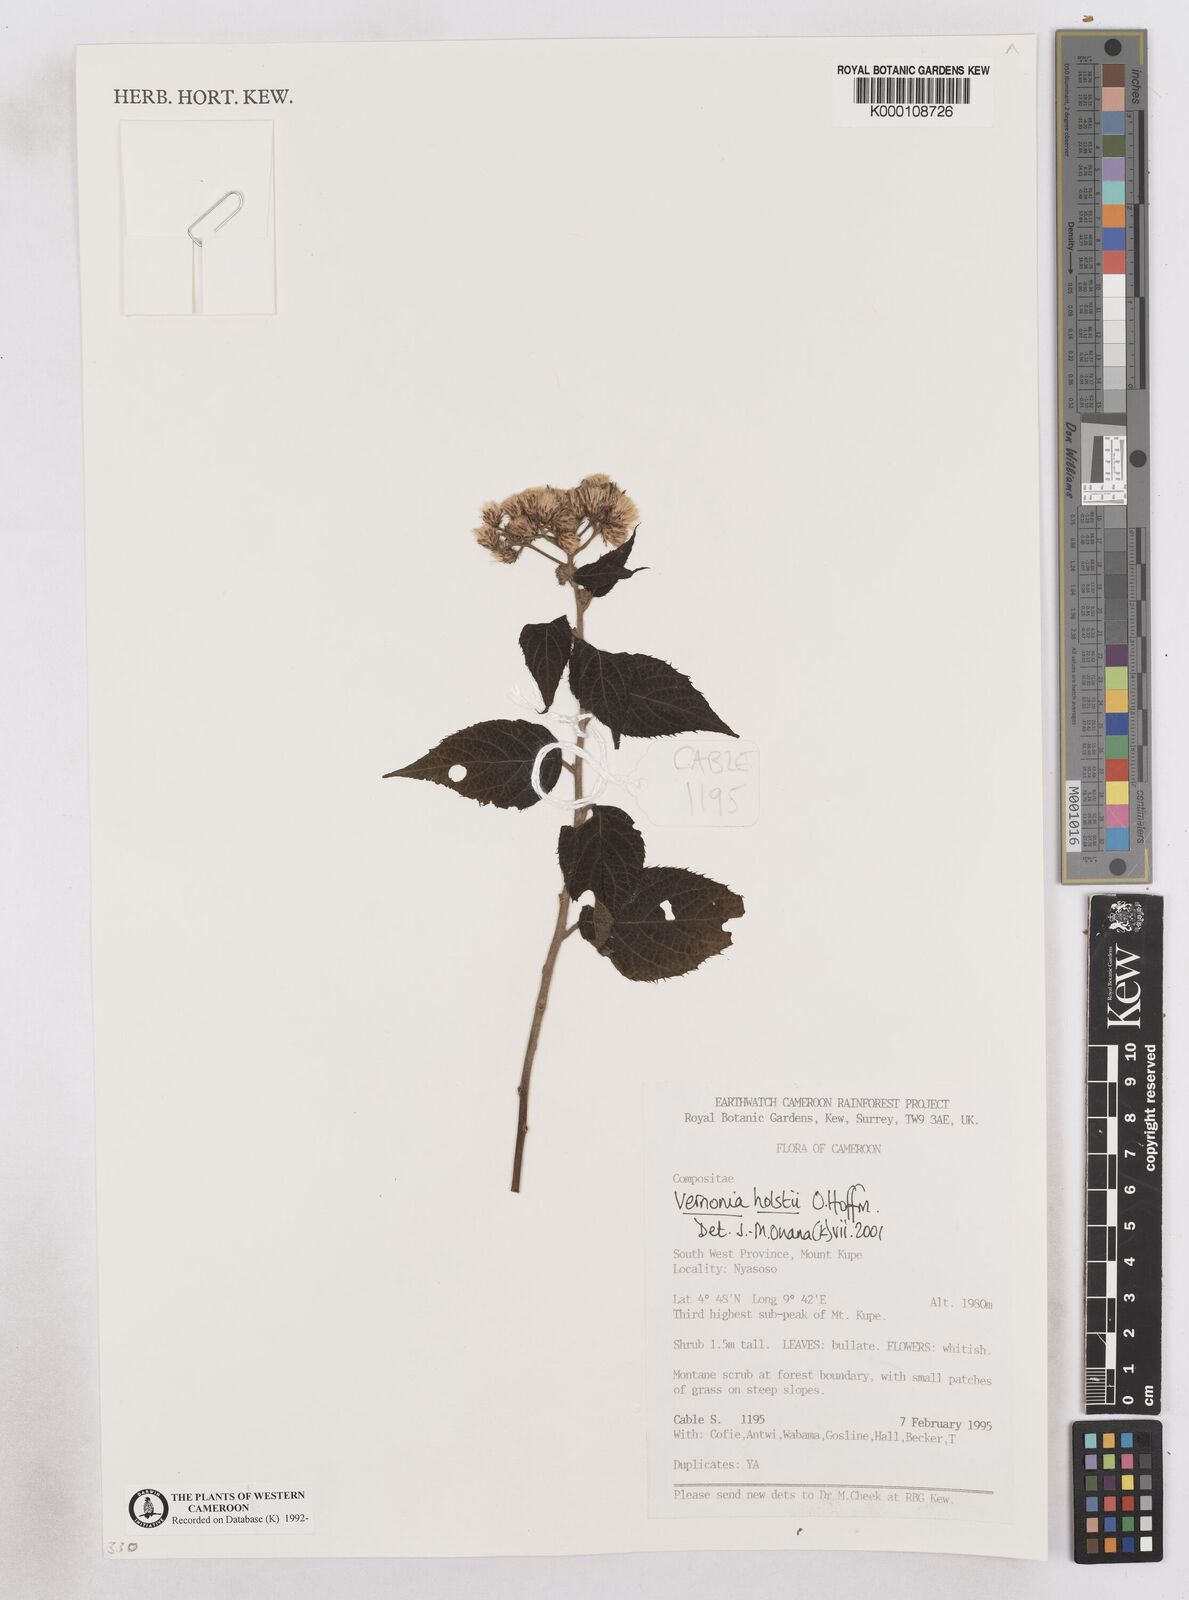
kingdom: Plantae
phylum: Tracheophyta
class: Magnoliopsida
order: Asterales
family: Asteraceae
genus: Vernonia
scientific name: Vernonia holstii
